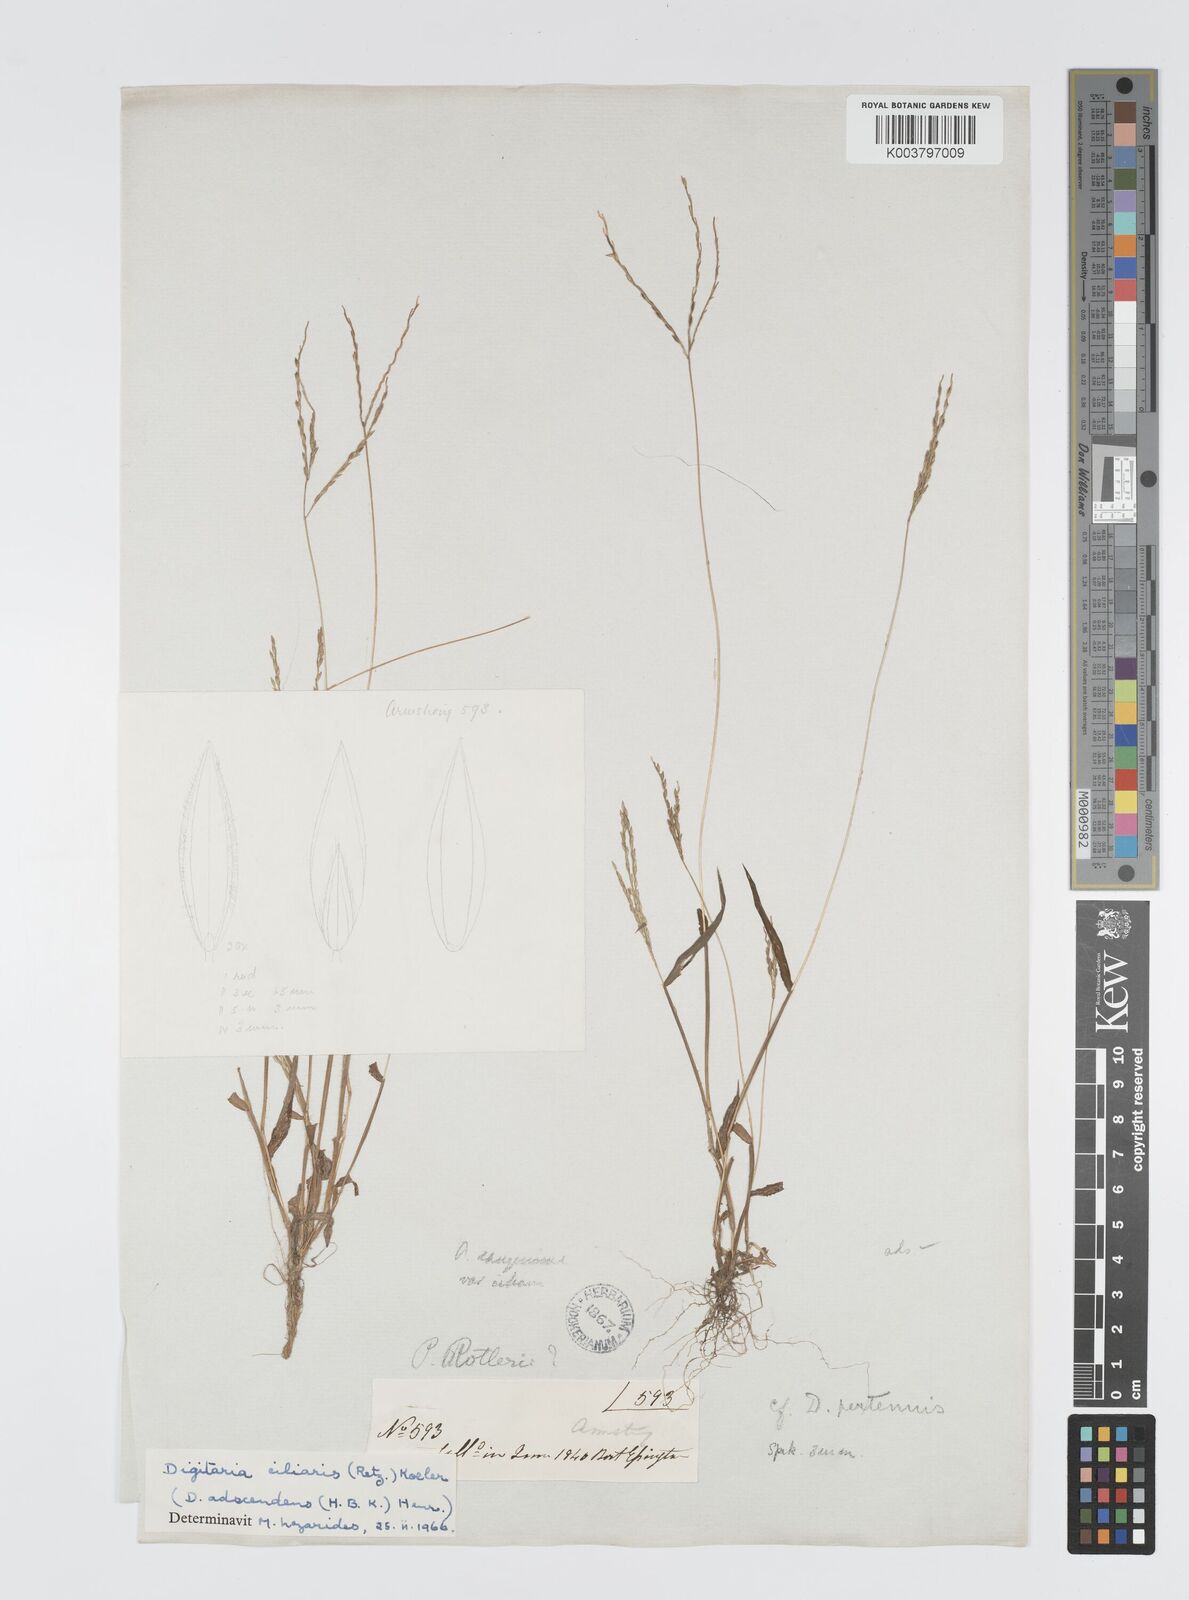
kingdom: Plantae
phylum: Tracheophyta
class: Liliopsida
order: Poales
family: Poaceae
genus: Digitaria
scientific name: Digitaria ciliaris
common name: Tropical finger-grass
